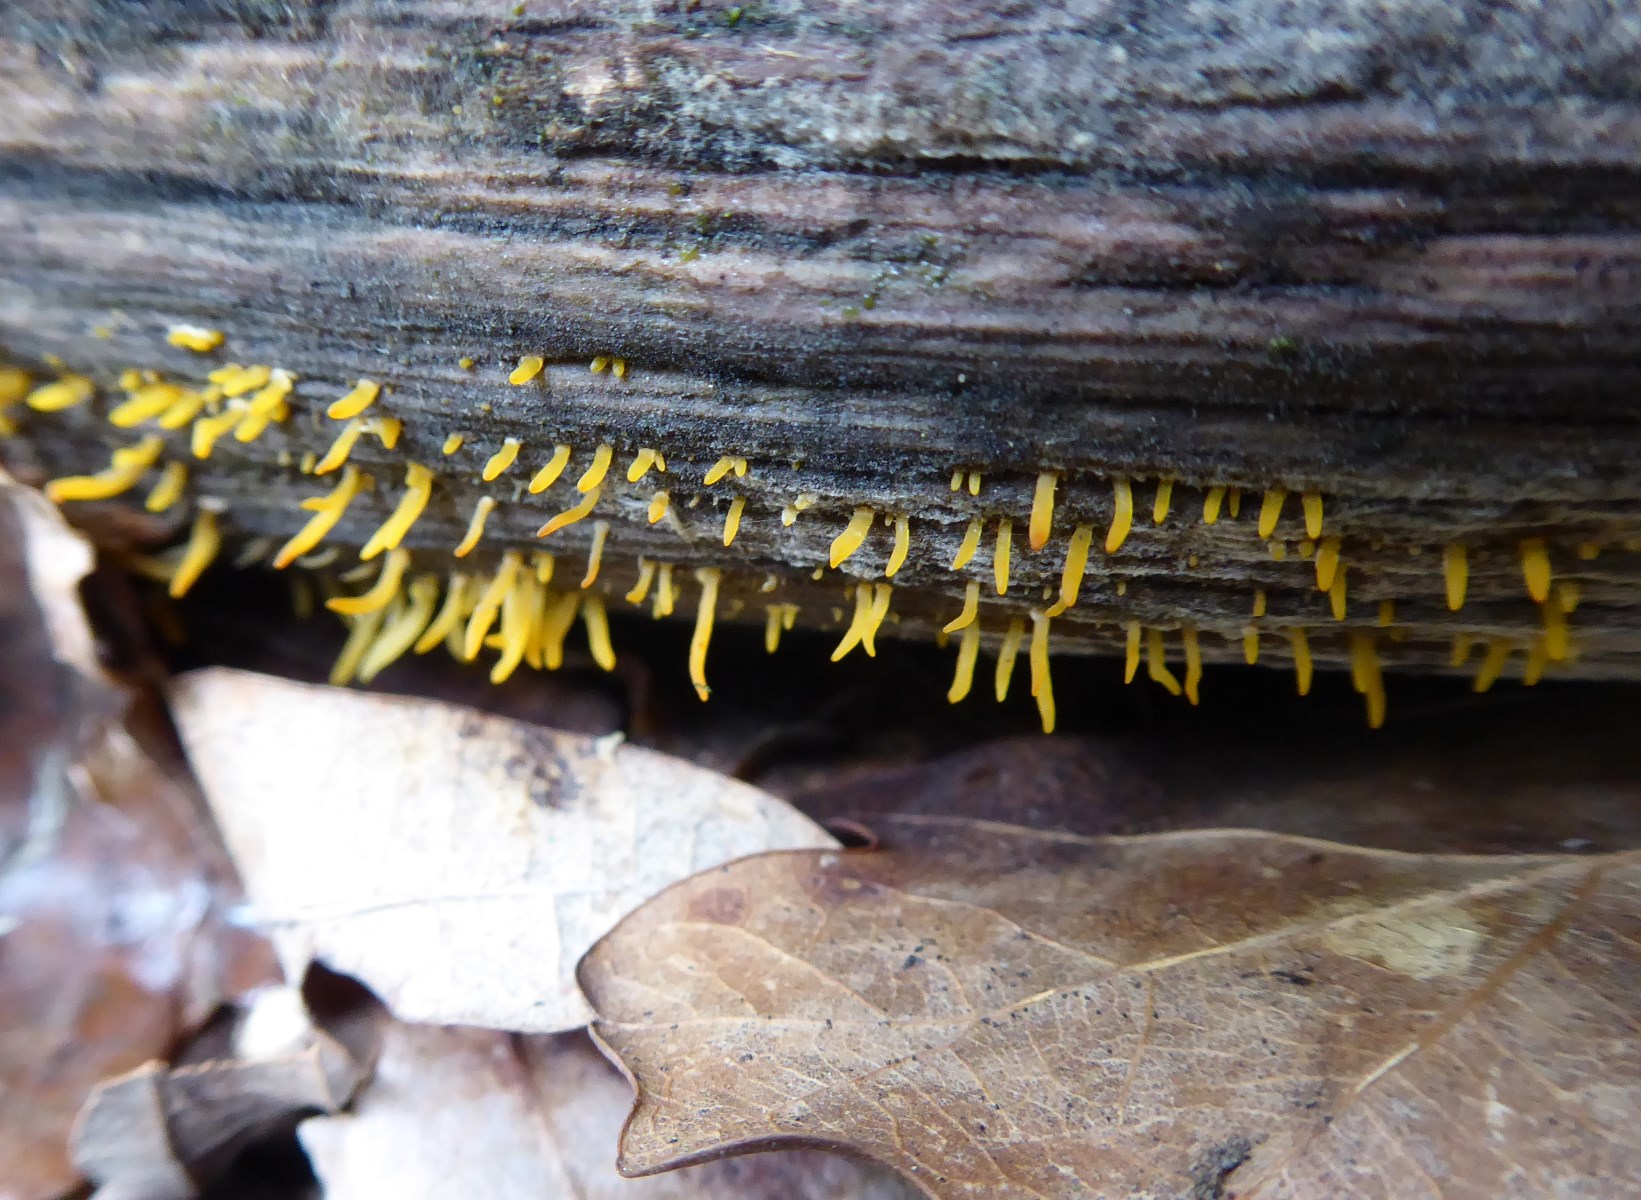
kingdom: Fungi
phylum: Basidiomycota
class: Dacrymycetes
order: Dacrymycetales
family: Dacrymycetaceae
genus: Calocera
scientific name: Calocera cornea
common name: liden guldgaffel
